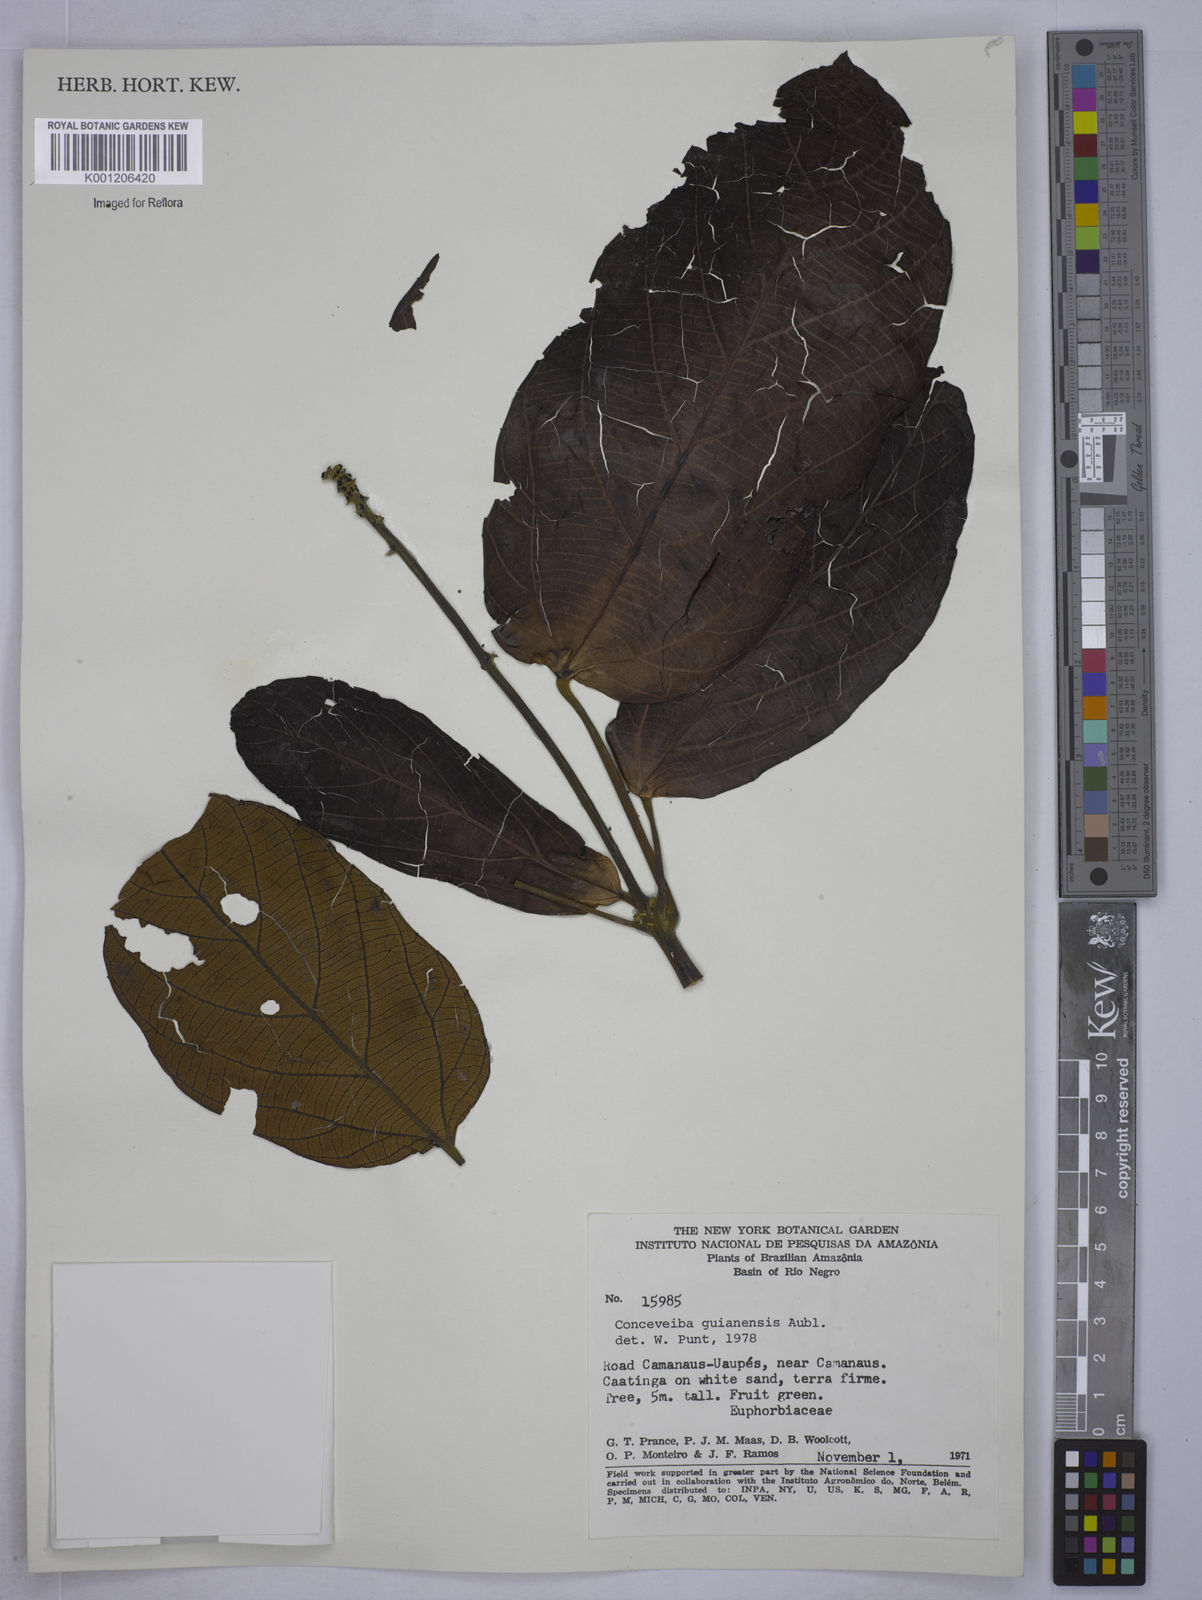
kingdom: Plantae
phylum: Tracheophyta
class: Magnoliopsida
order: Malpighiales
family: Euphorbiaceae
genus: Conceveiba
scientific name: Conceveiba guianensis
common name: Poatoru
